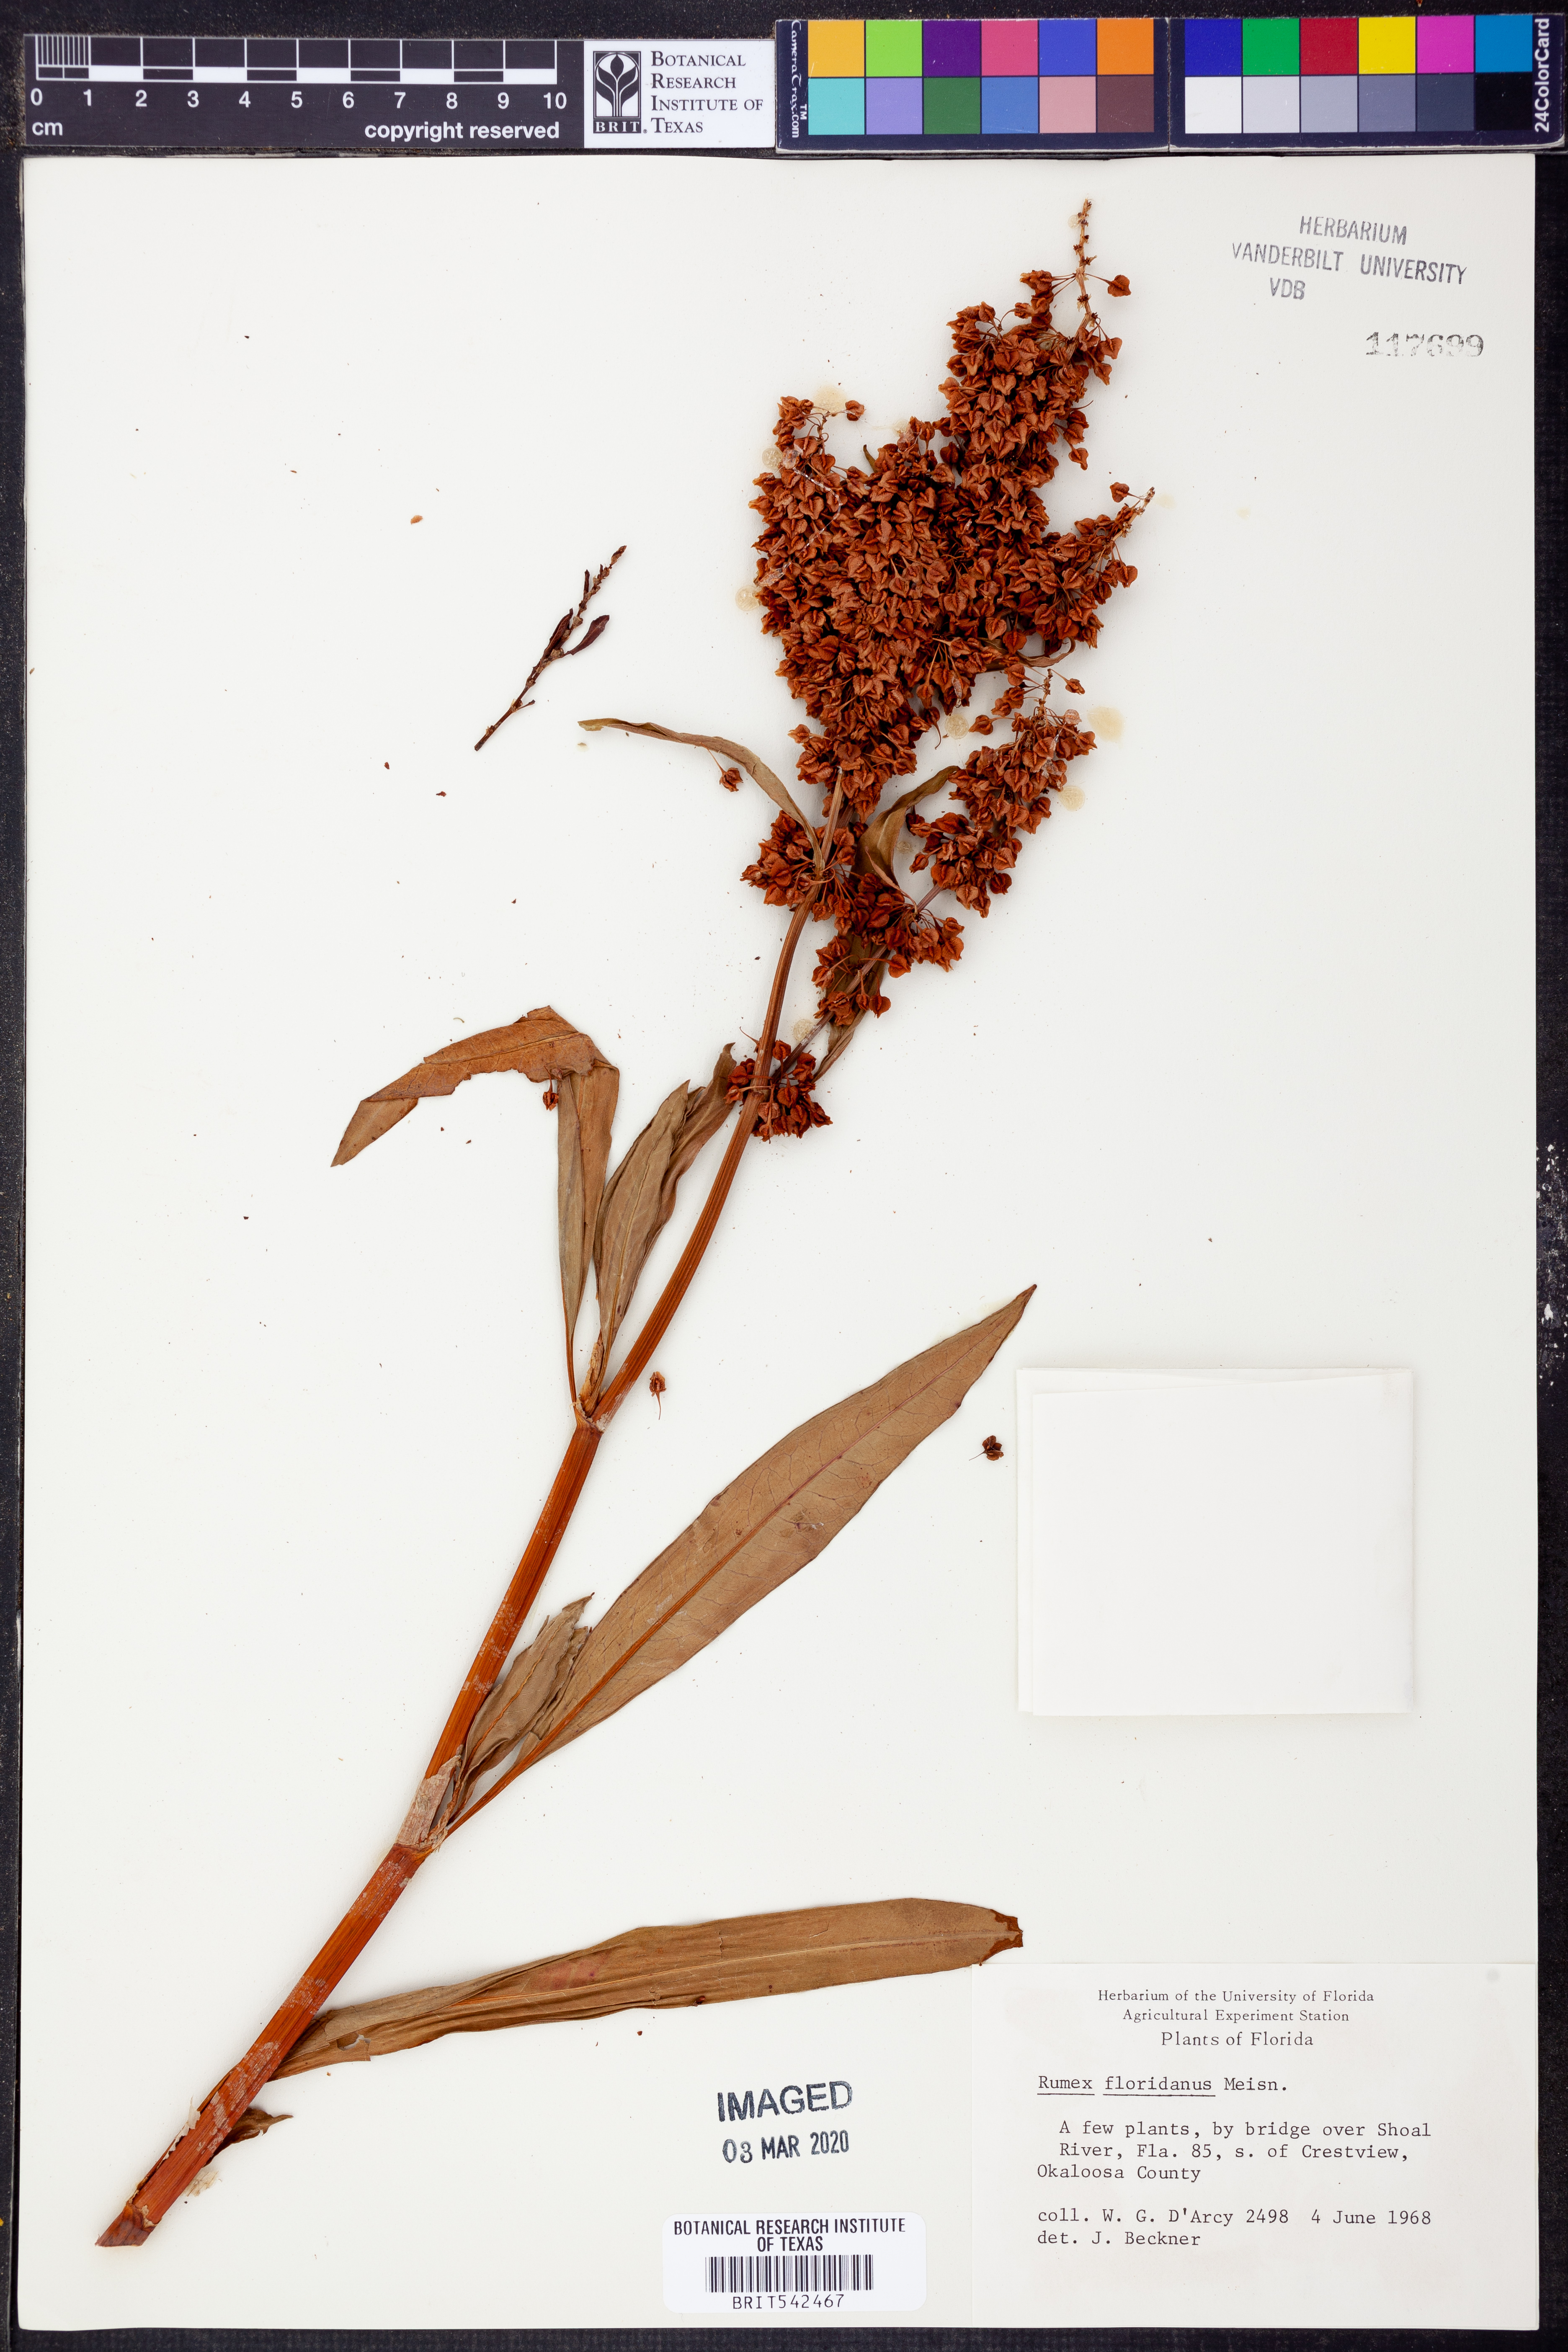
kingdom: Plantae
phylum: Tracheophyta
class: Magnoliopsida
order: Caryophyllales
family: Polygonaceae
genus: Rumex
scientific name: Rumex floridanus
